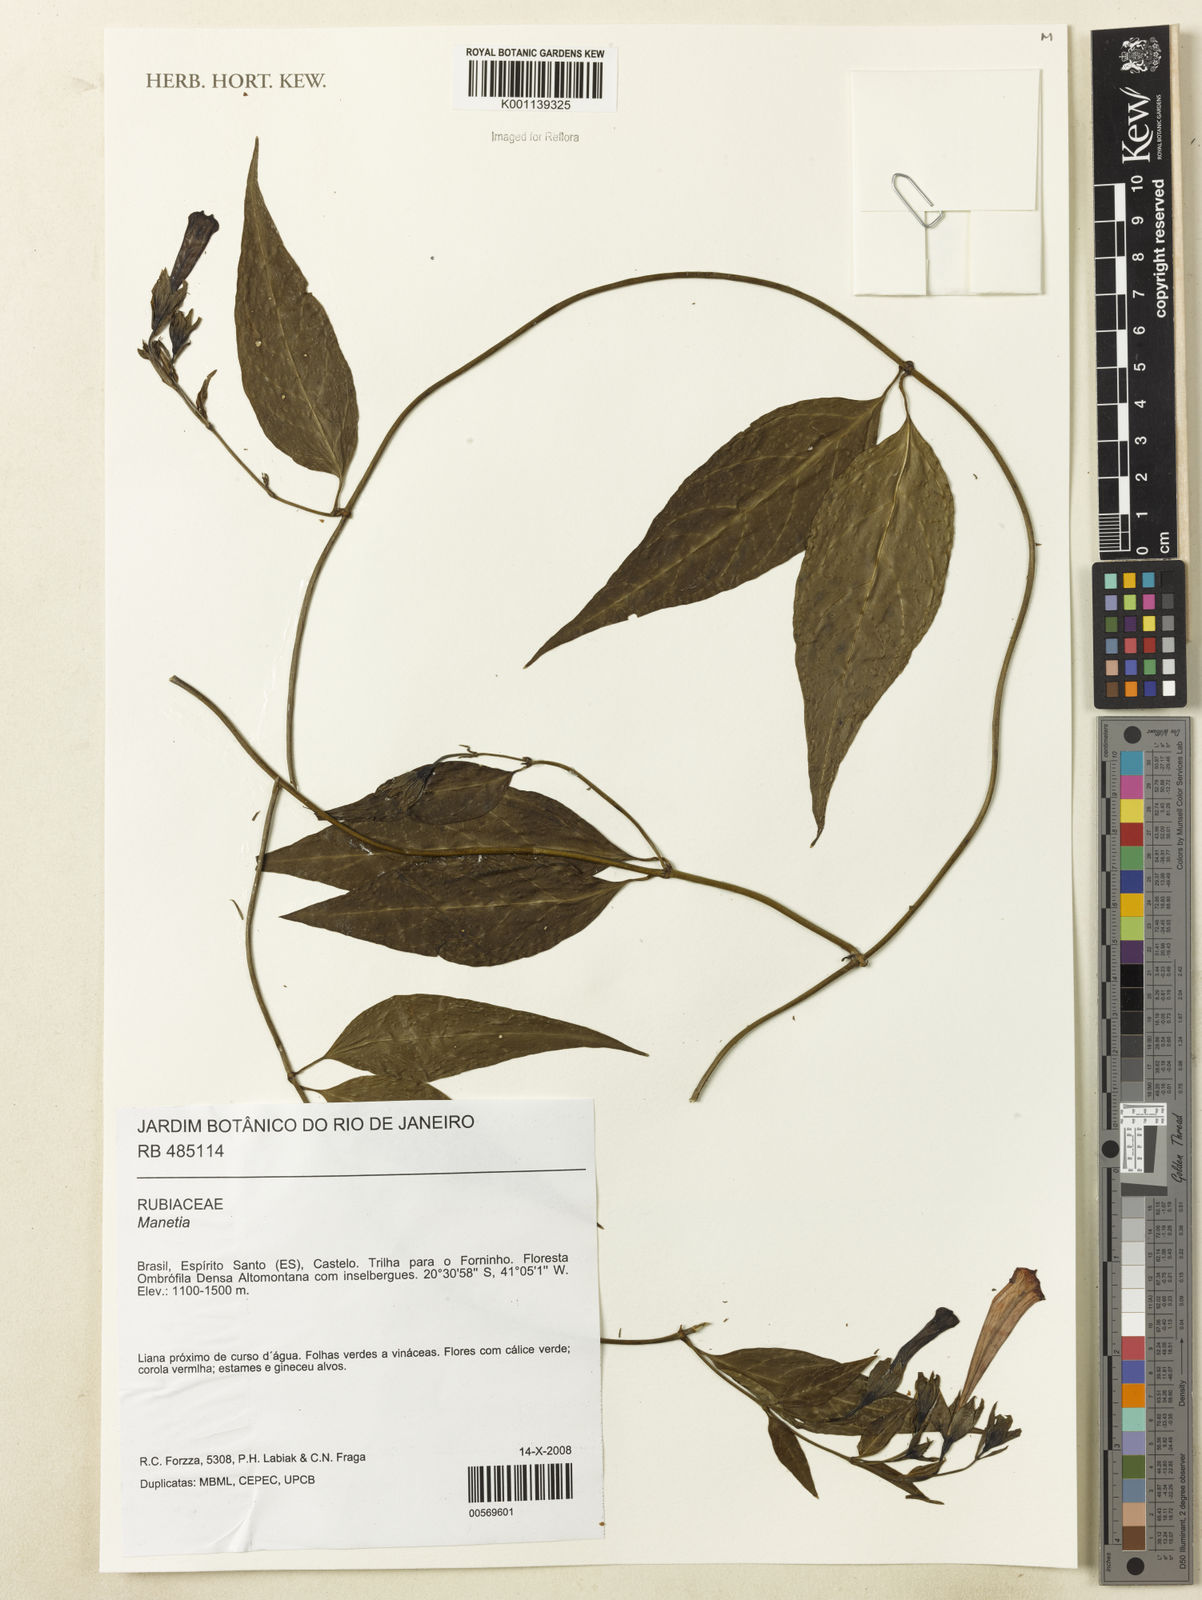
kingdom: Plantae
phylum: Tracheophyta
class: Magnoliopsida
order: Gentianales
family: Rubiaceae
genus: Manettia
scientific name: Manettia
